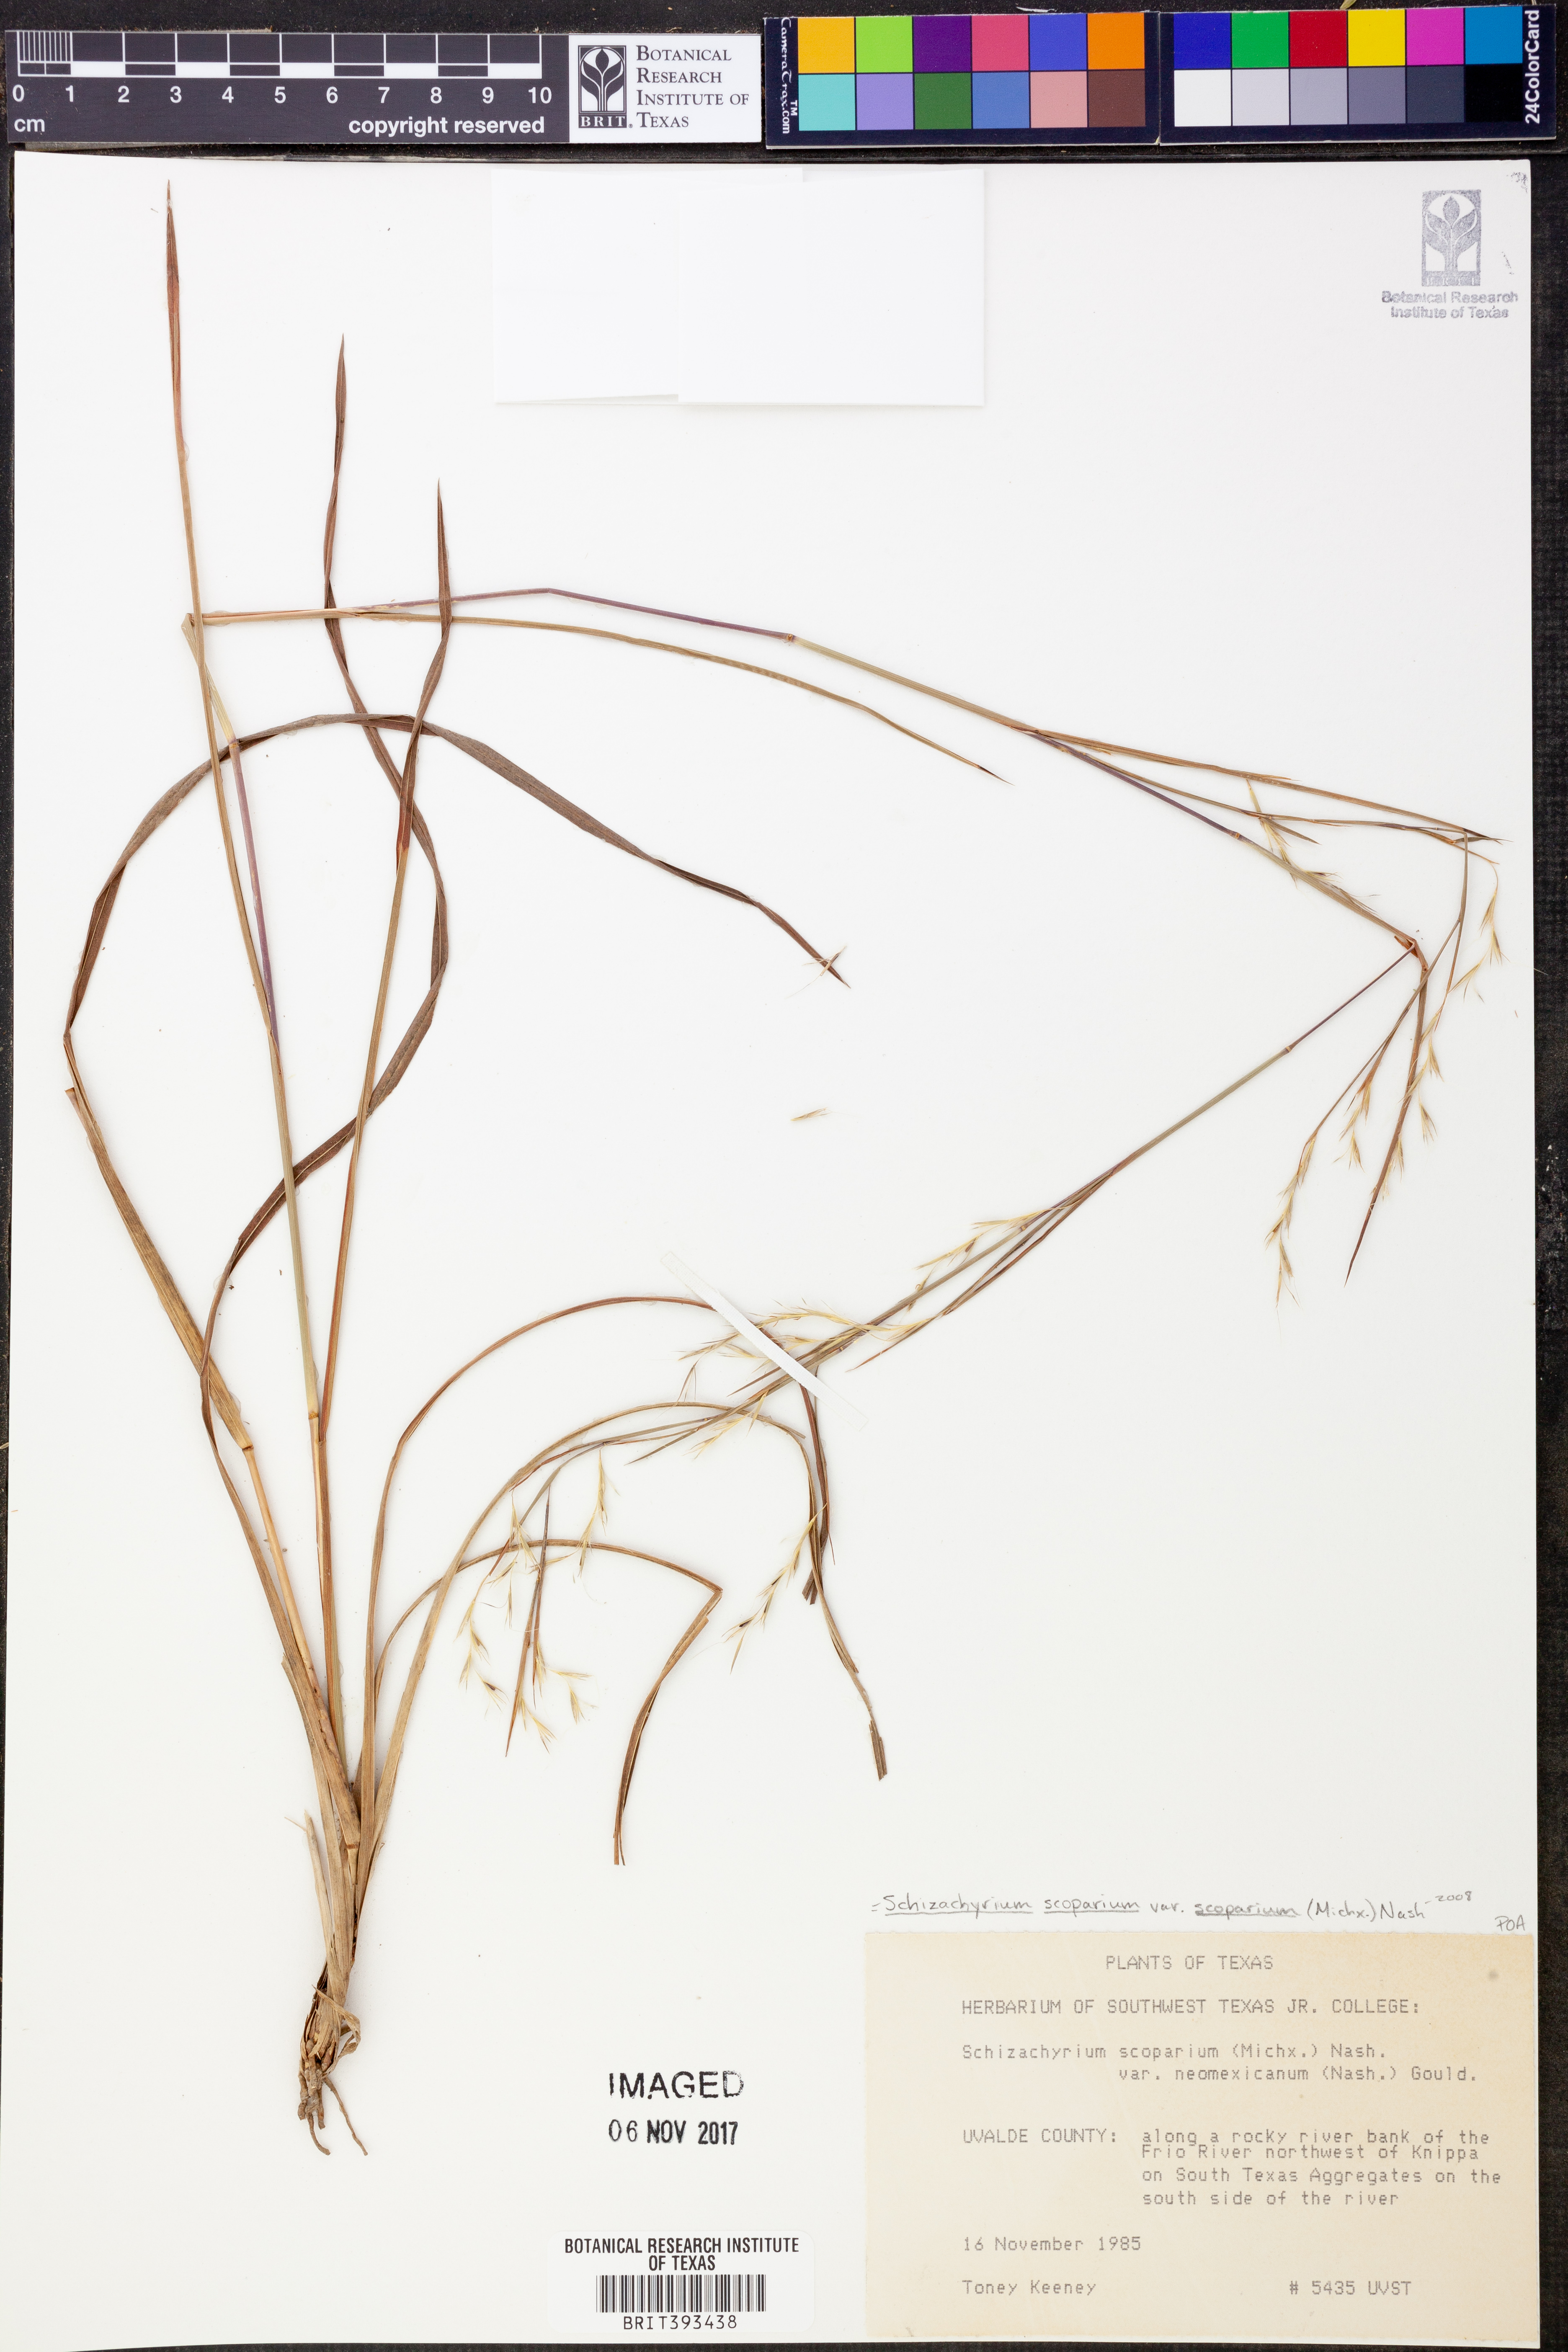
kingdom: Plantae
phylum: Tracheophyta
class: Liliopsida
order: Poales
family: Poaceae
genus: Schizachyrium
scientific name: Schizachyrium scoparium
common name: Little bluestem
